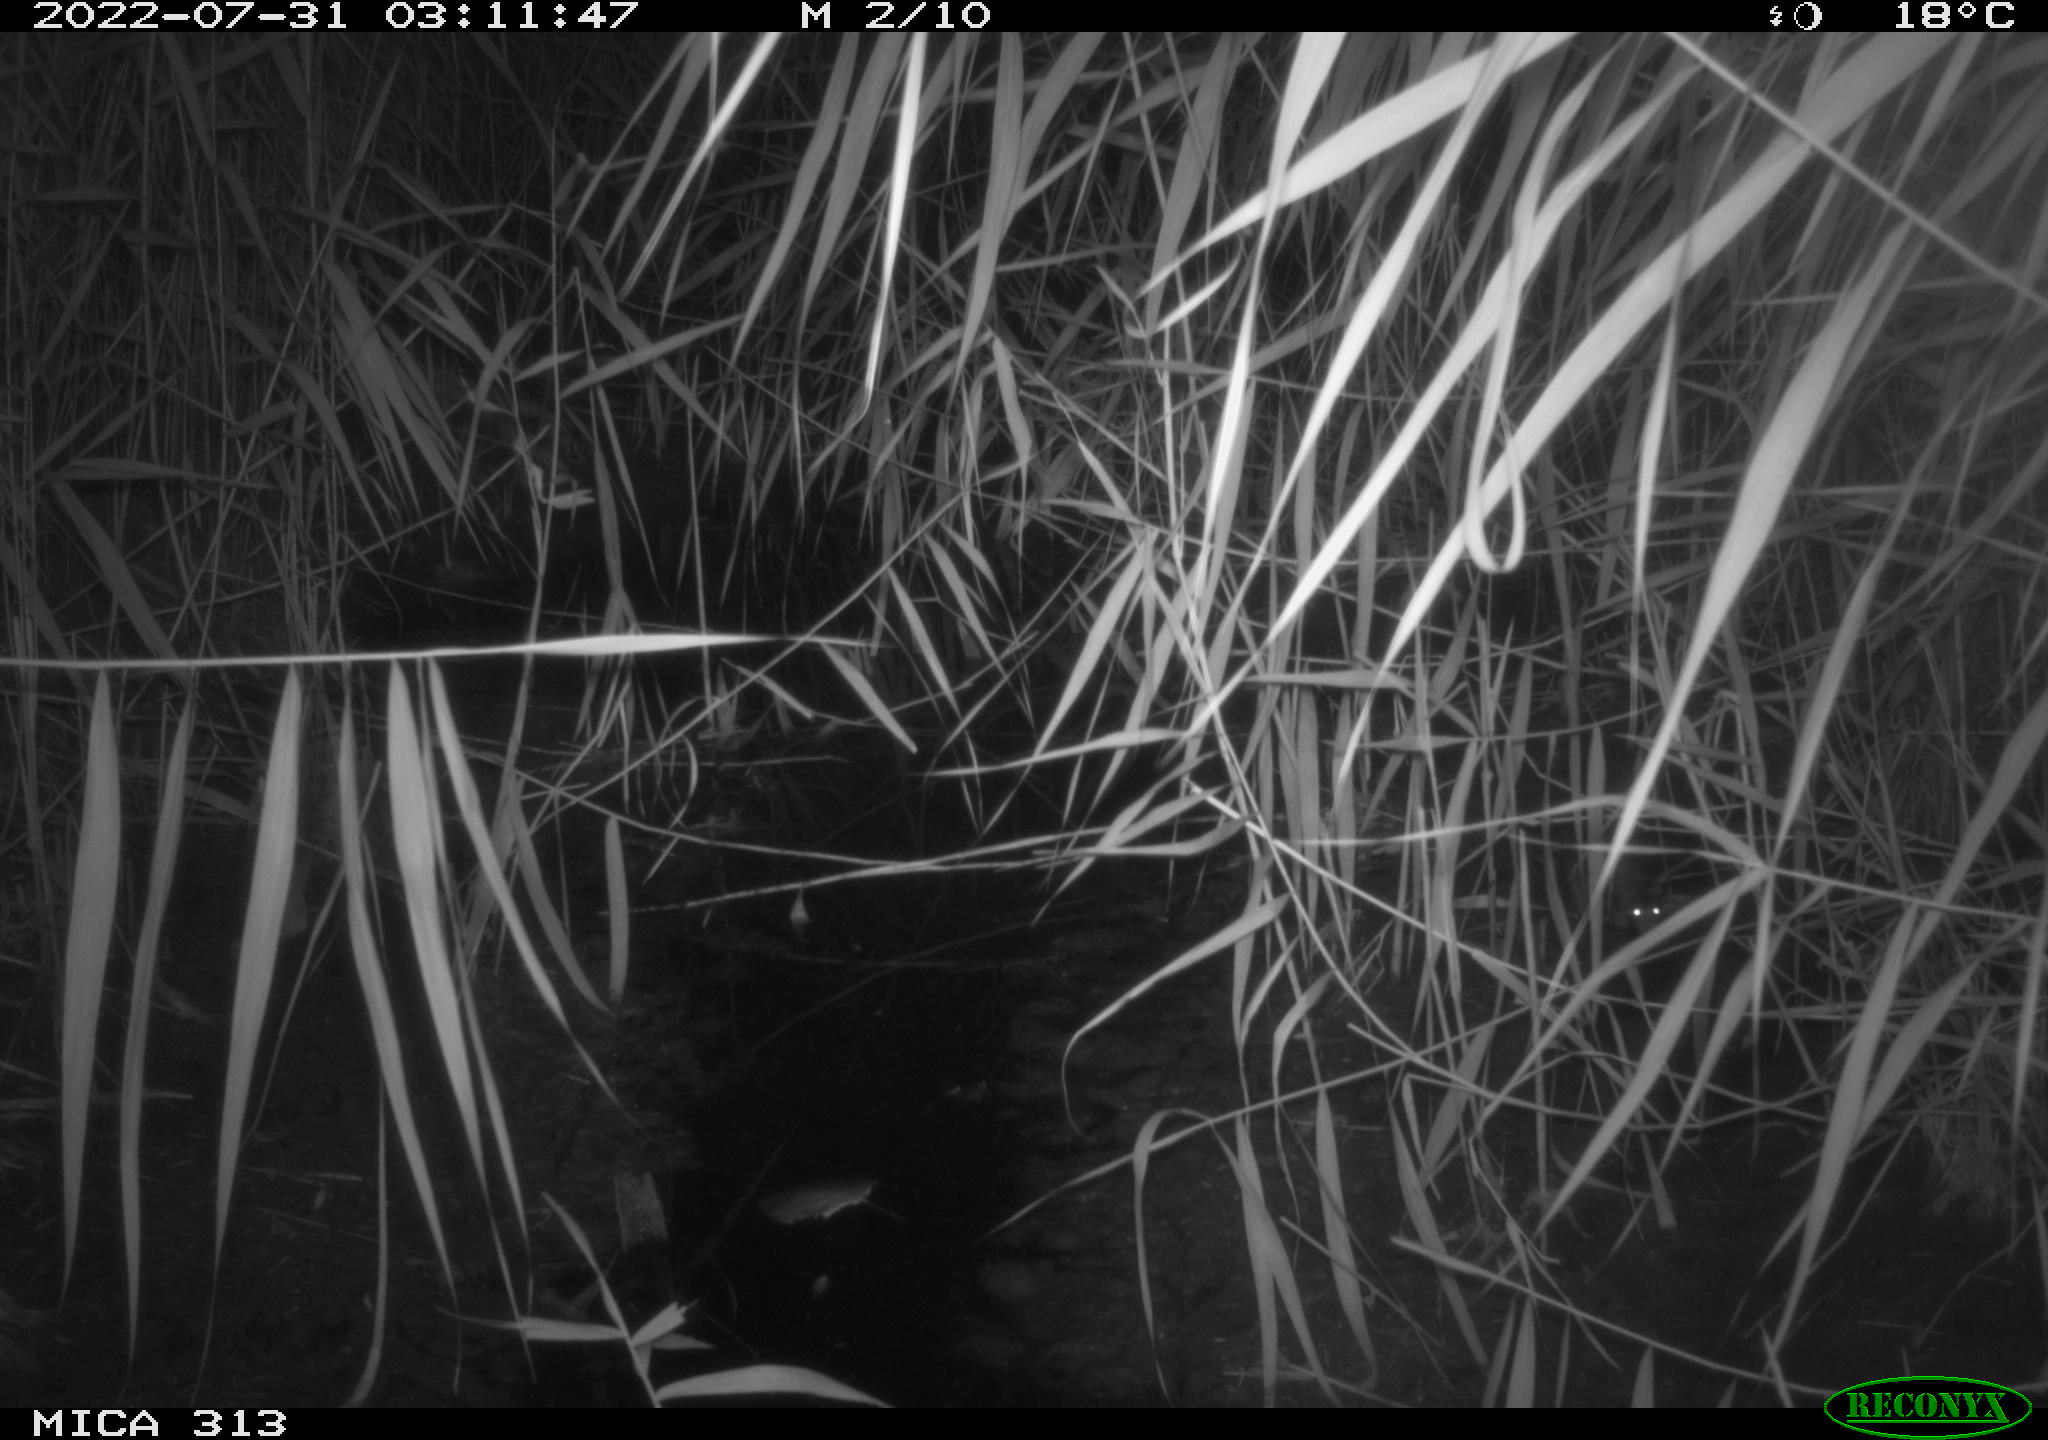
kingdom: Animalia
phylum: Chordata
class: Mammalia
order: Rodentia
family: Muridae
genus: Rattus
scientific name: Rattus norvegicus
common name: Brown rat
